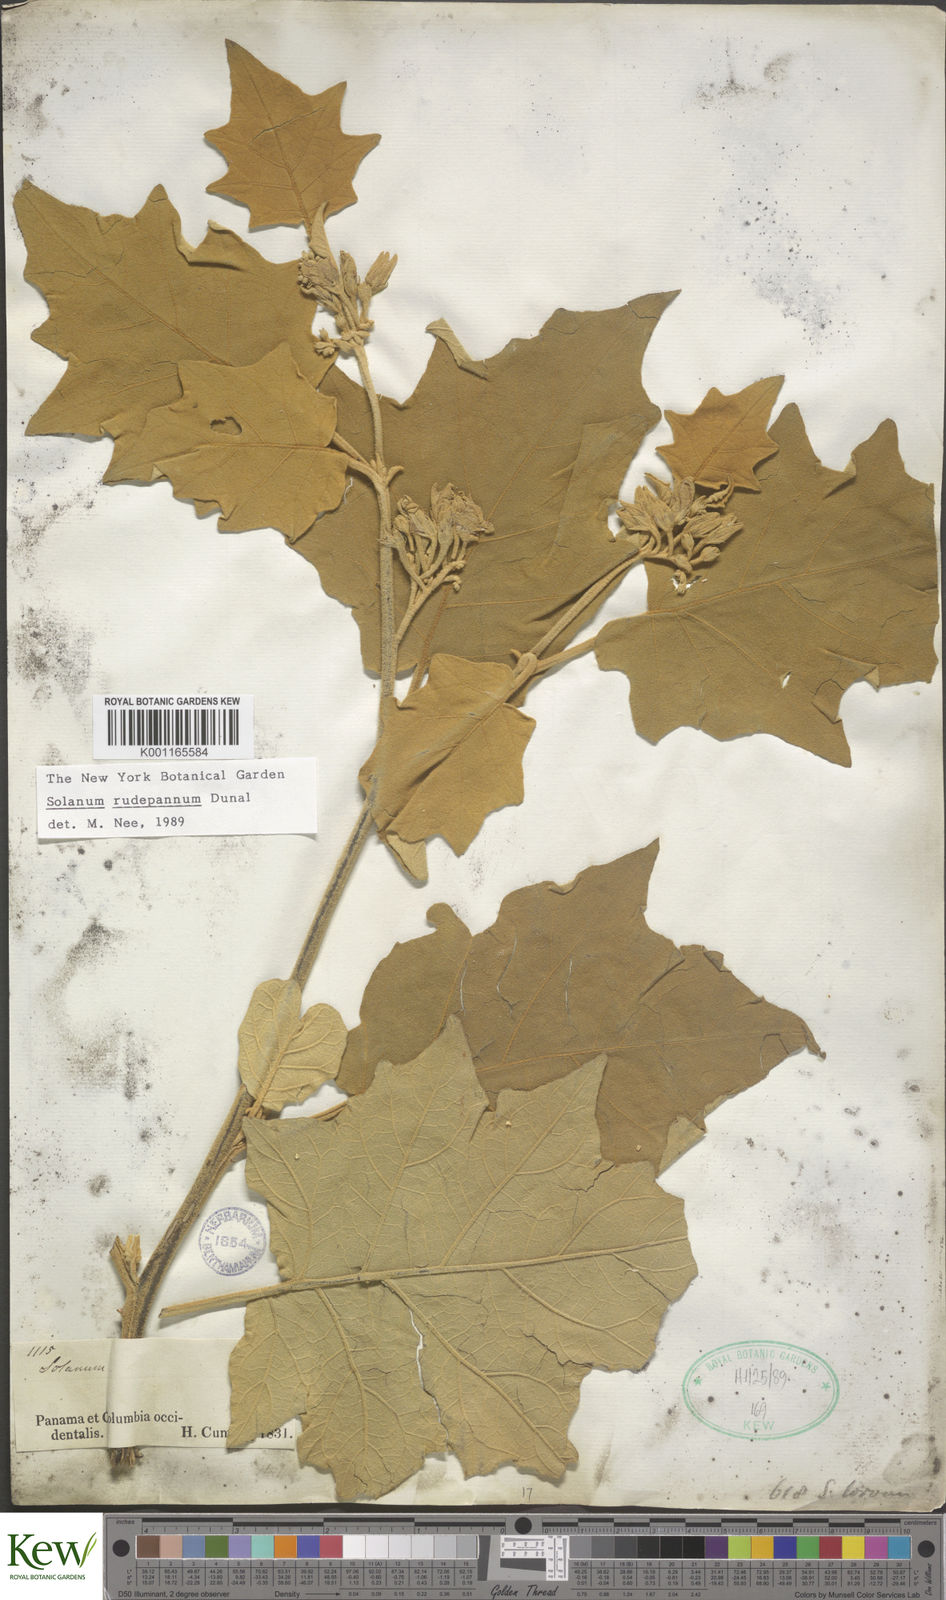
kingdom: Plantae
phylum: Tracheophyta
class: Magnoliopsida
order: Solanales
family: Solanaceae
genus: Solanum
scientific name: Solanum rude-pannum
